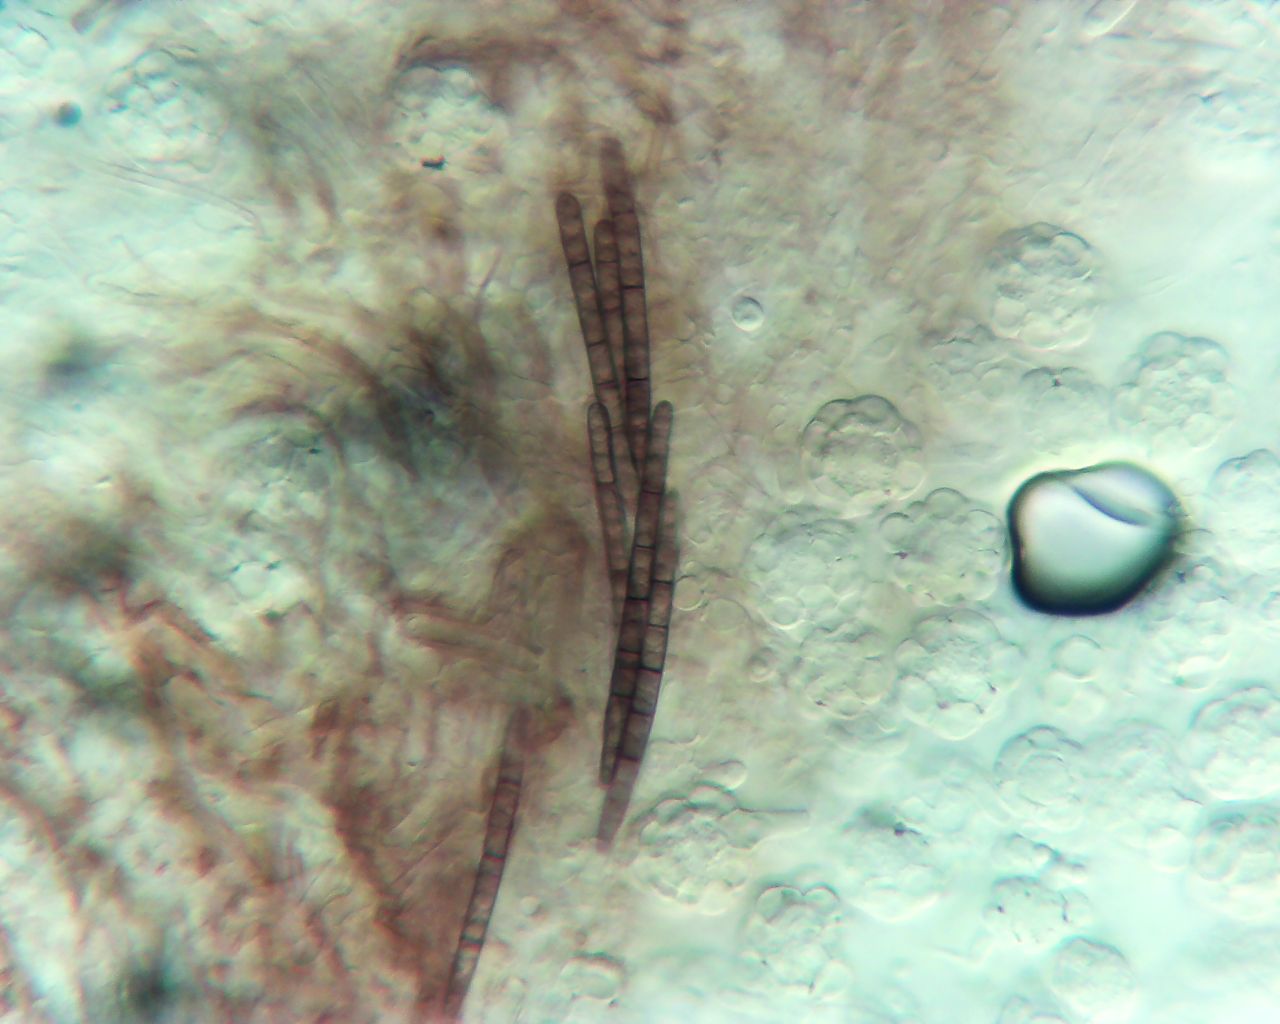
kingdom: Fungi
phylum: Ascomycota
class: Sordariomycetes
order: Hypocreales
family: Hypocreaceae
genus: Hypomyces
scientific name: Hypomyces papulasporae
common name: jordtunge-snylteskorpe
